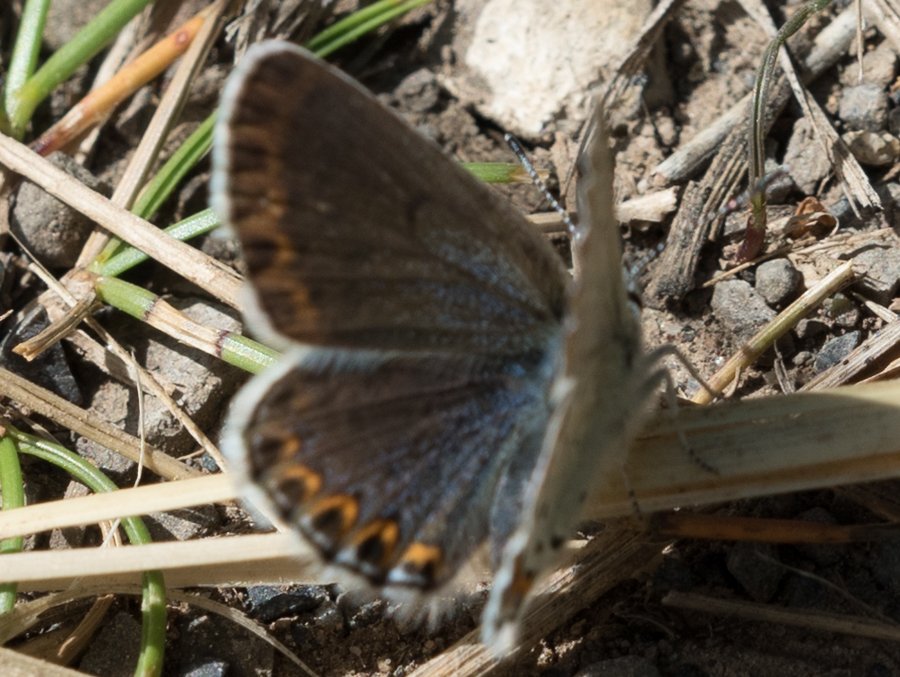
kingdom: Animalia
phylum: Arthropoda
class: Insecta
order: Lepidoptera
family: Lycaenidae
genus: Lycaeides
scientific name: Lycaeides idas
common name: Northern Blue
